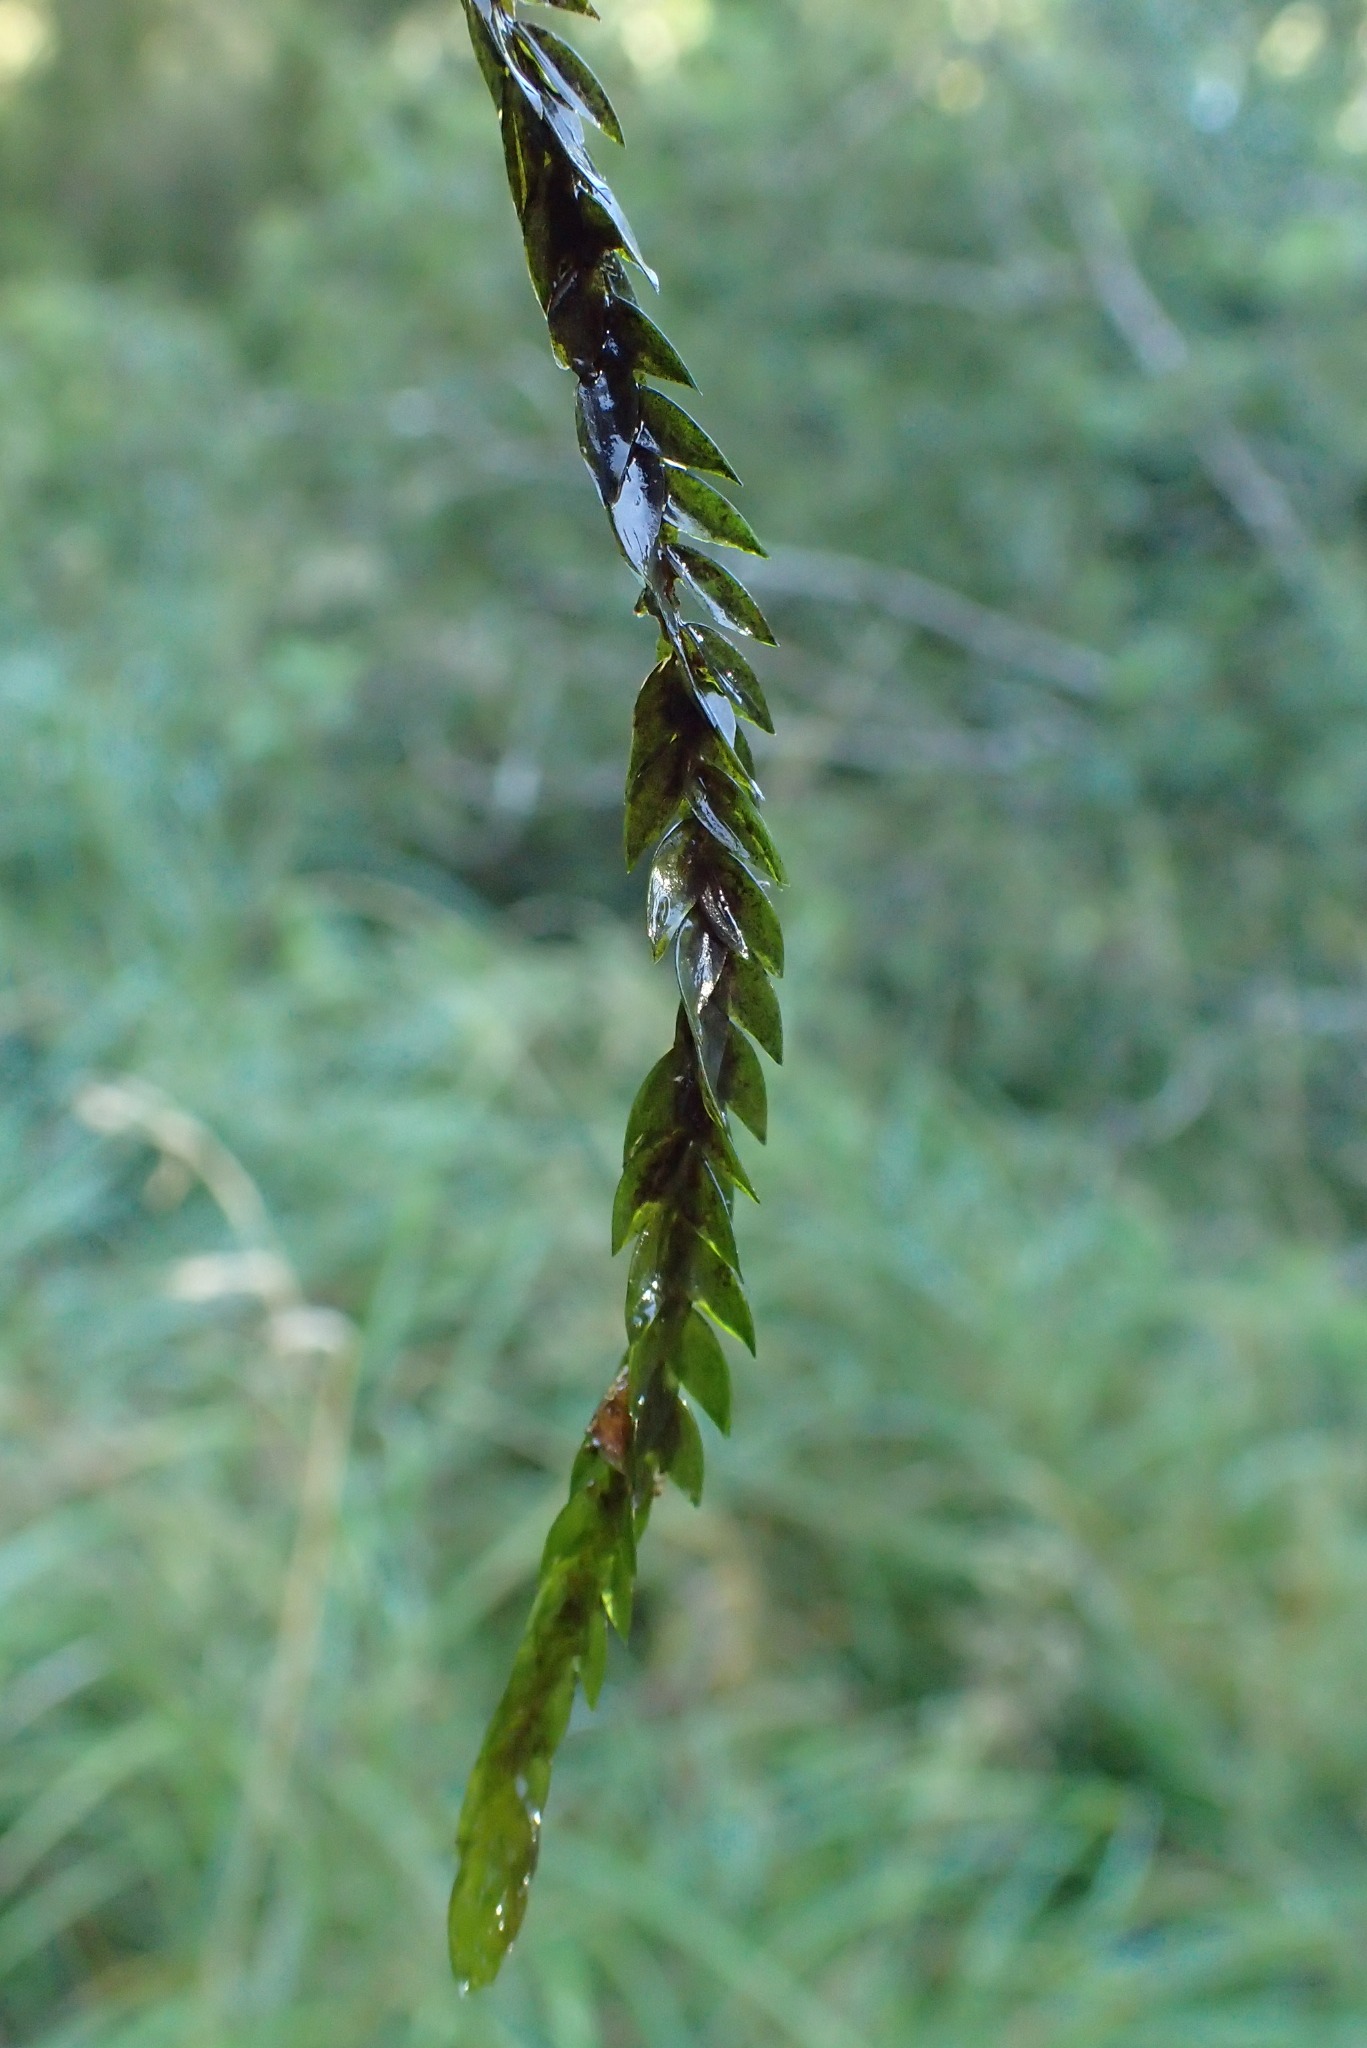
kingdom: Plantae
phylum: Bryophyta
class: Bryopsida
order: Hypnales
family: Fontinalaceae
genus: Fontinalis
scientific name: Fontinalis antipyretica
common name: Stor kildemos
